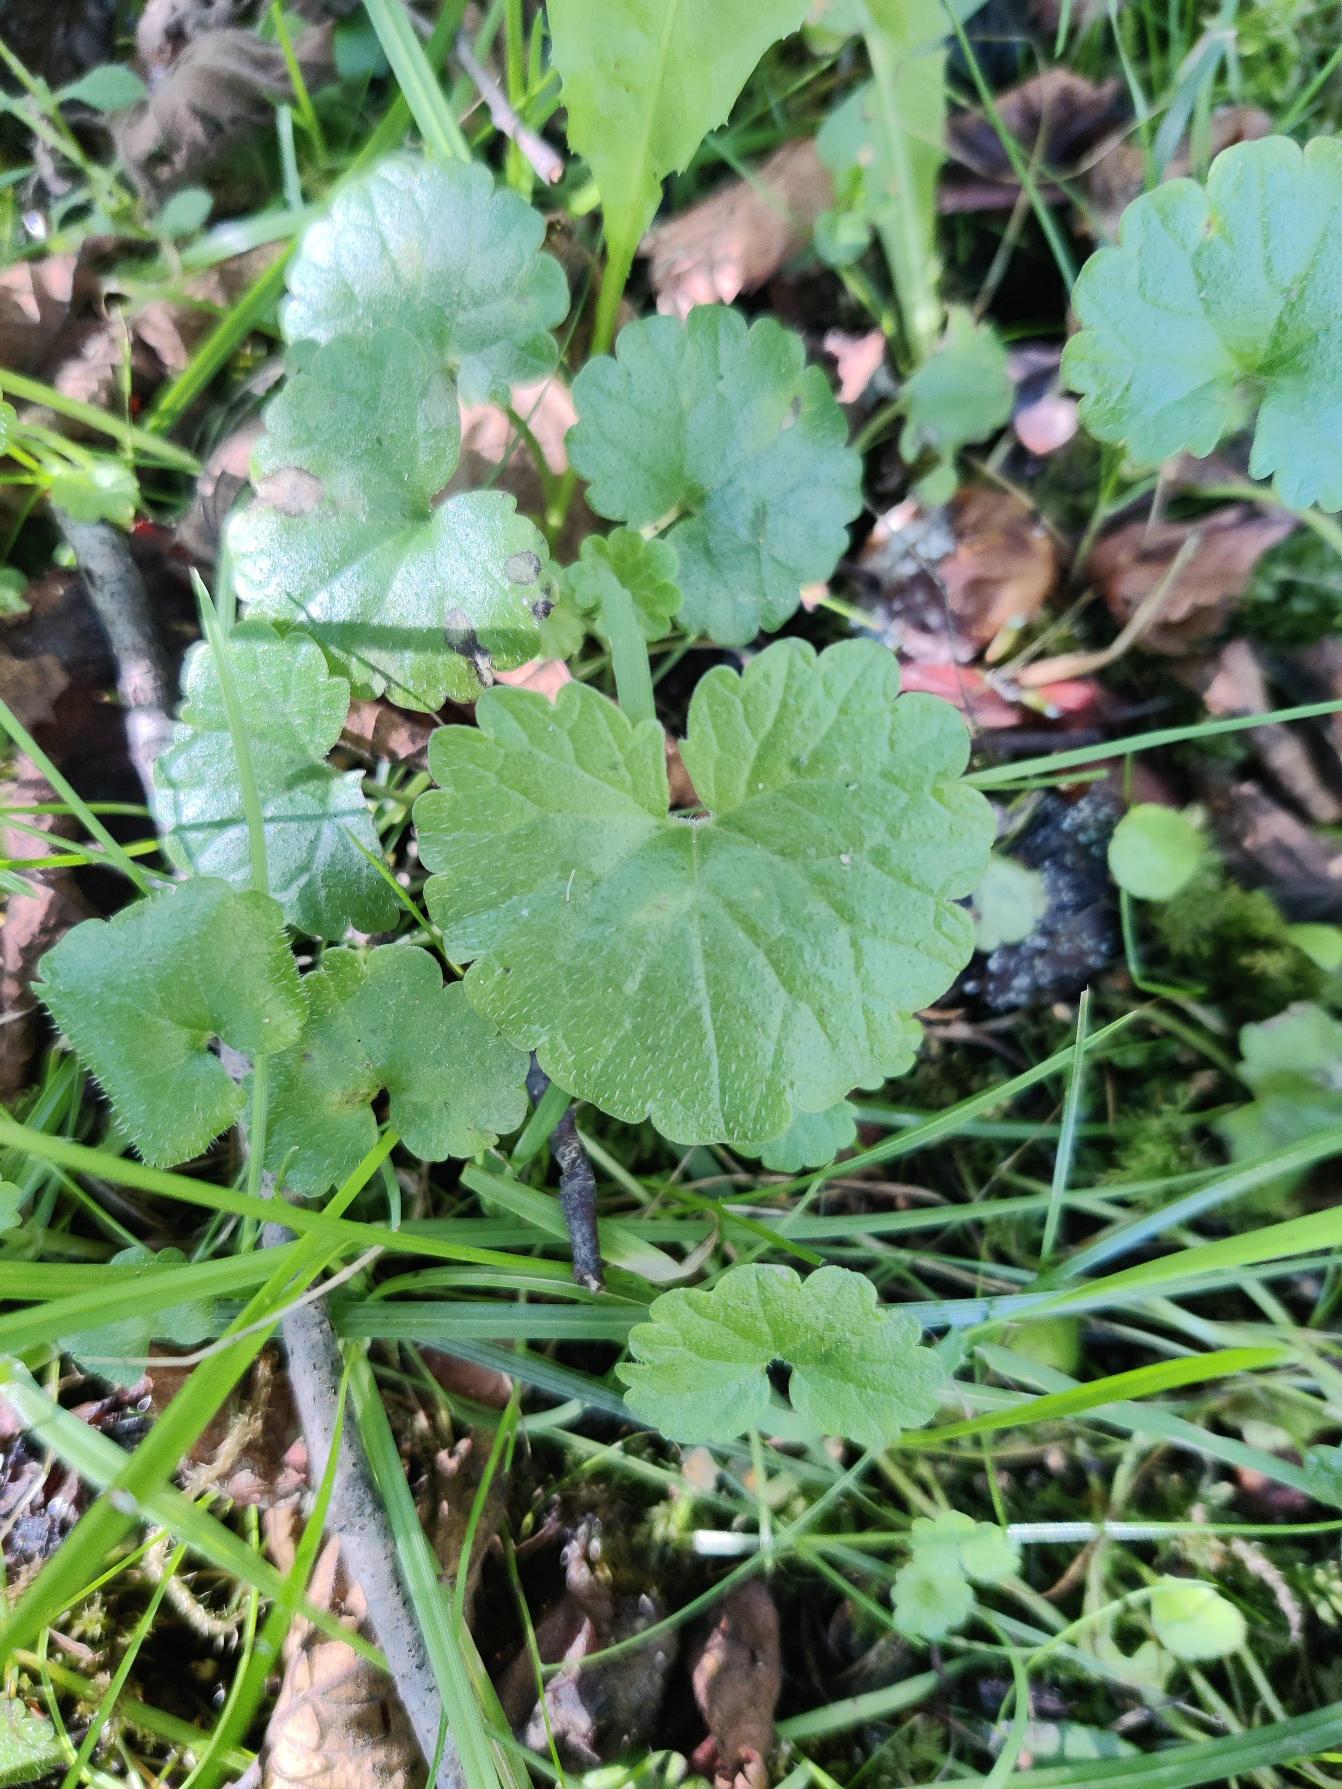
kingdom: Plantae
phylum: Tracheophyta
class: Magnoliopsida
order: Lamiales
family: Lamiaceae
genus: Glechoma
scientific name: Glechoma hederacea
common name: Korsknap
